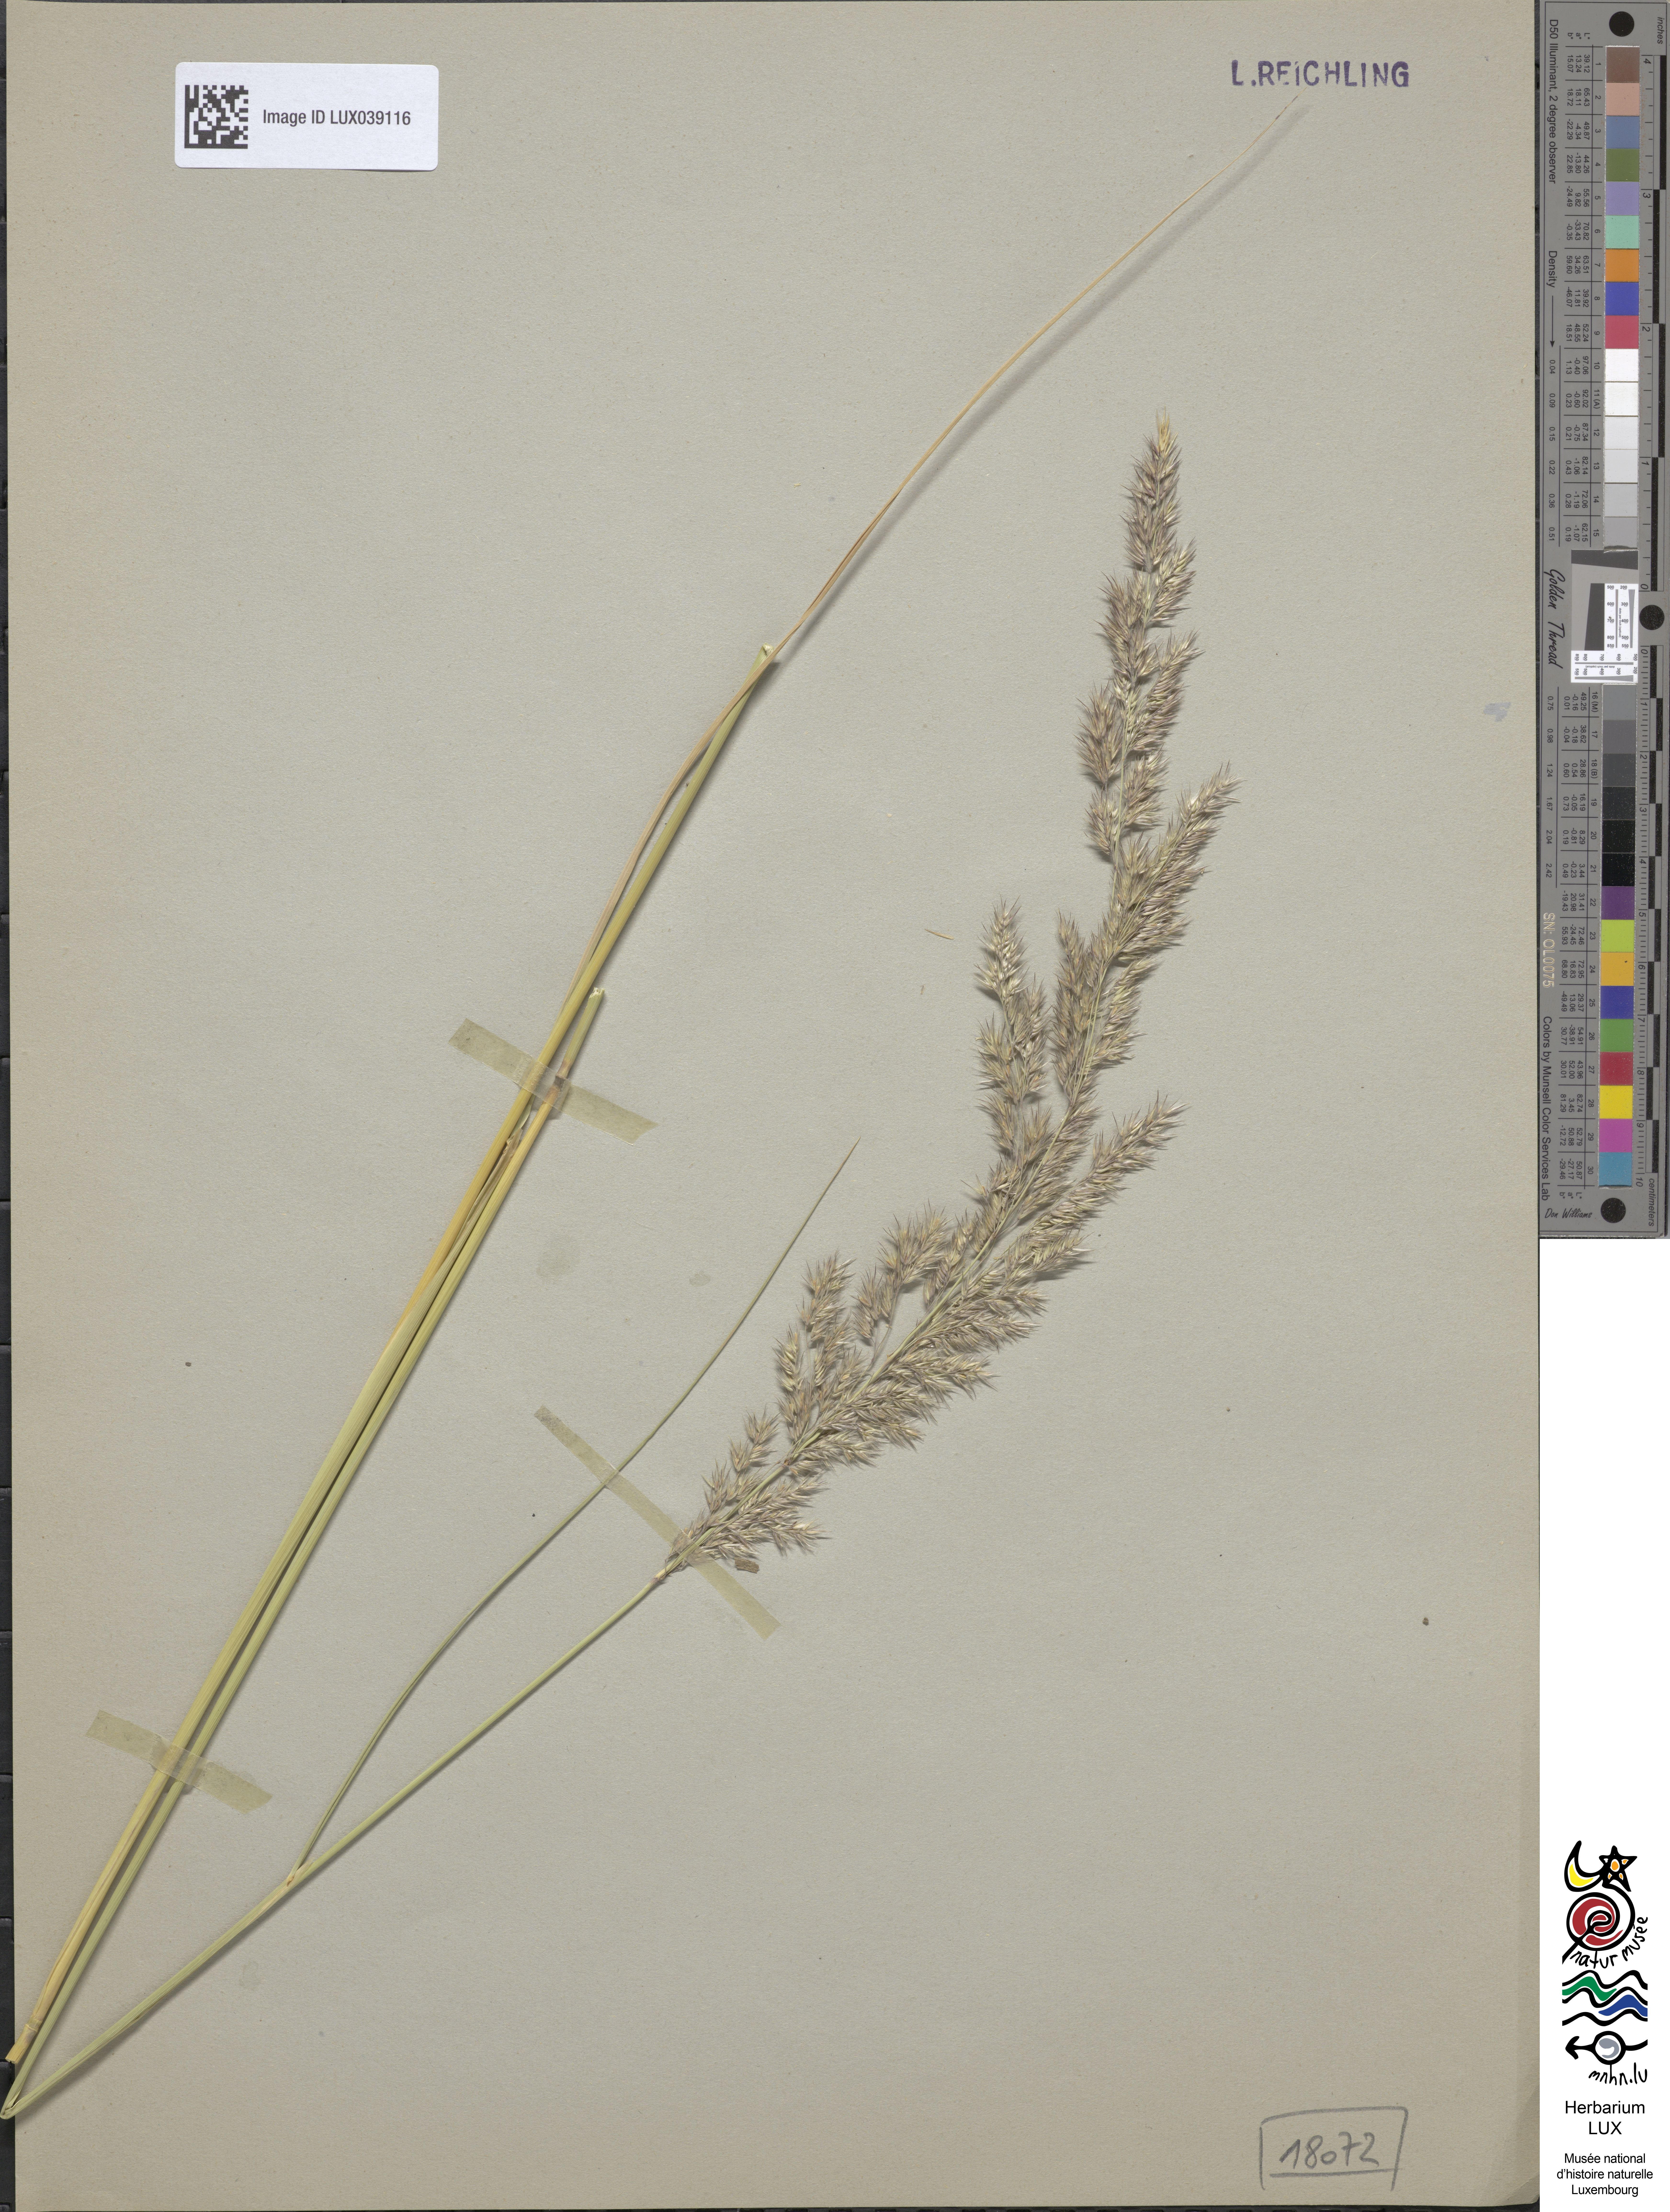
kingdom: Plantae
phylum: Tracheophyta
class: Liliopsida
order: Poales
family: Poaceae
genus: Calamagrostis
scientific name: Calamagrostis epigejos
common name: Wood small-reed
